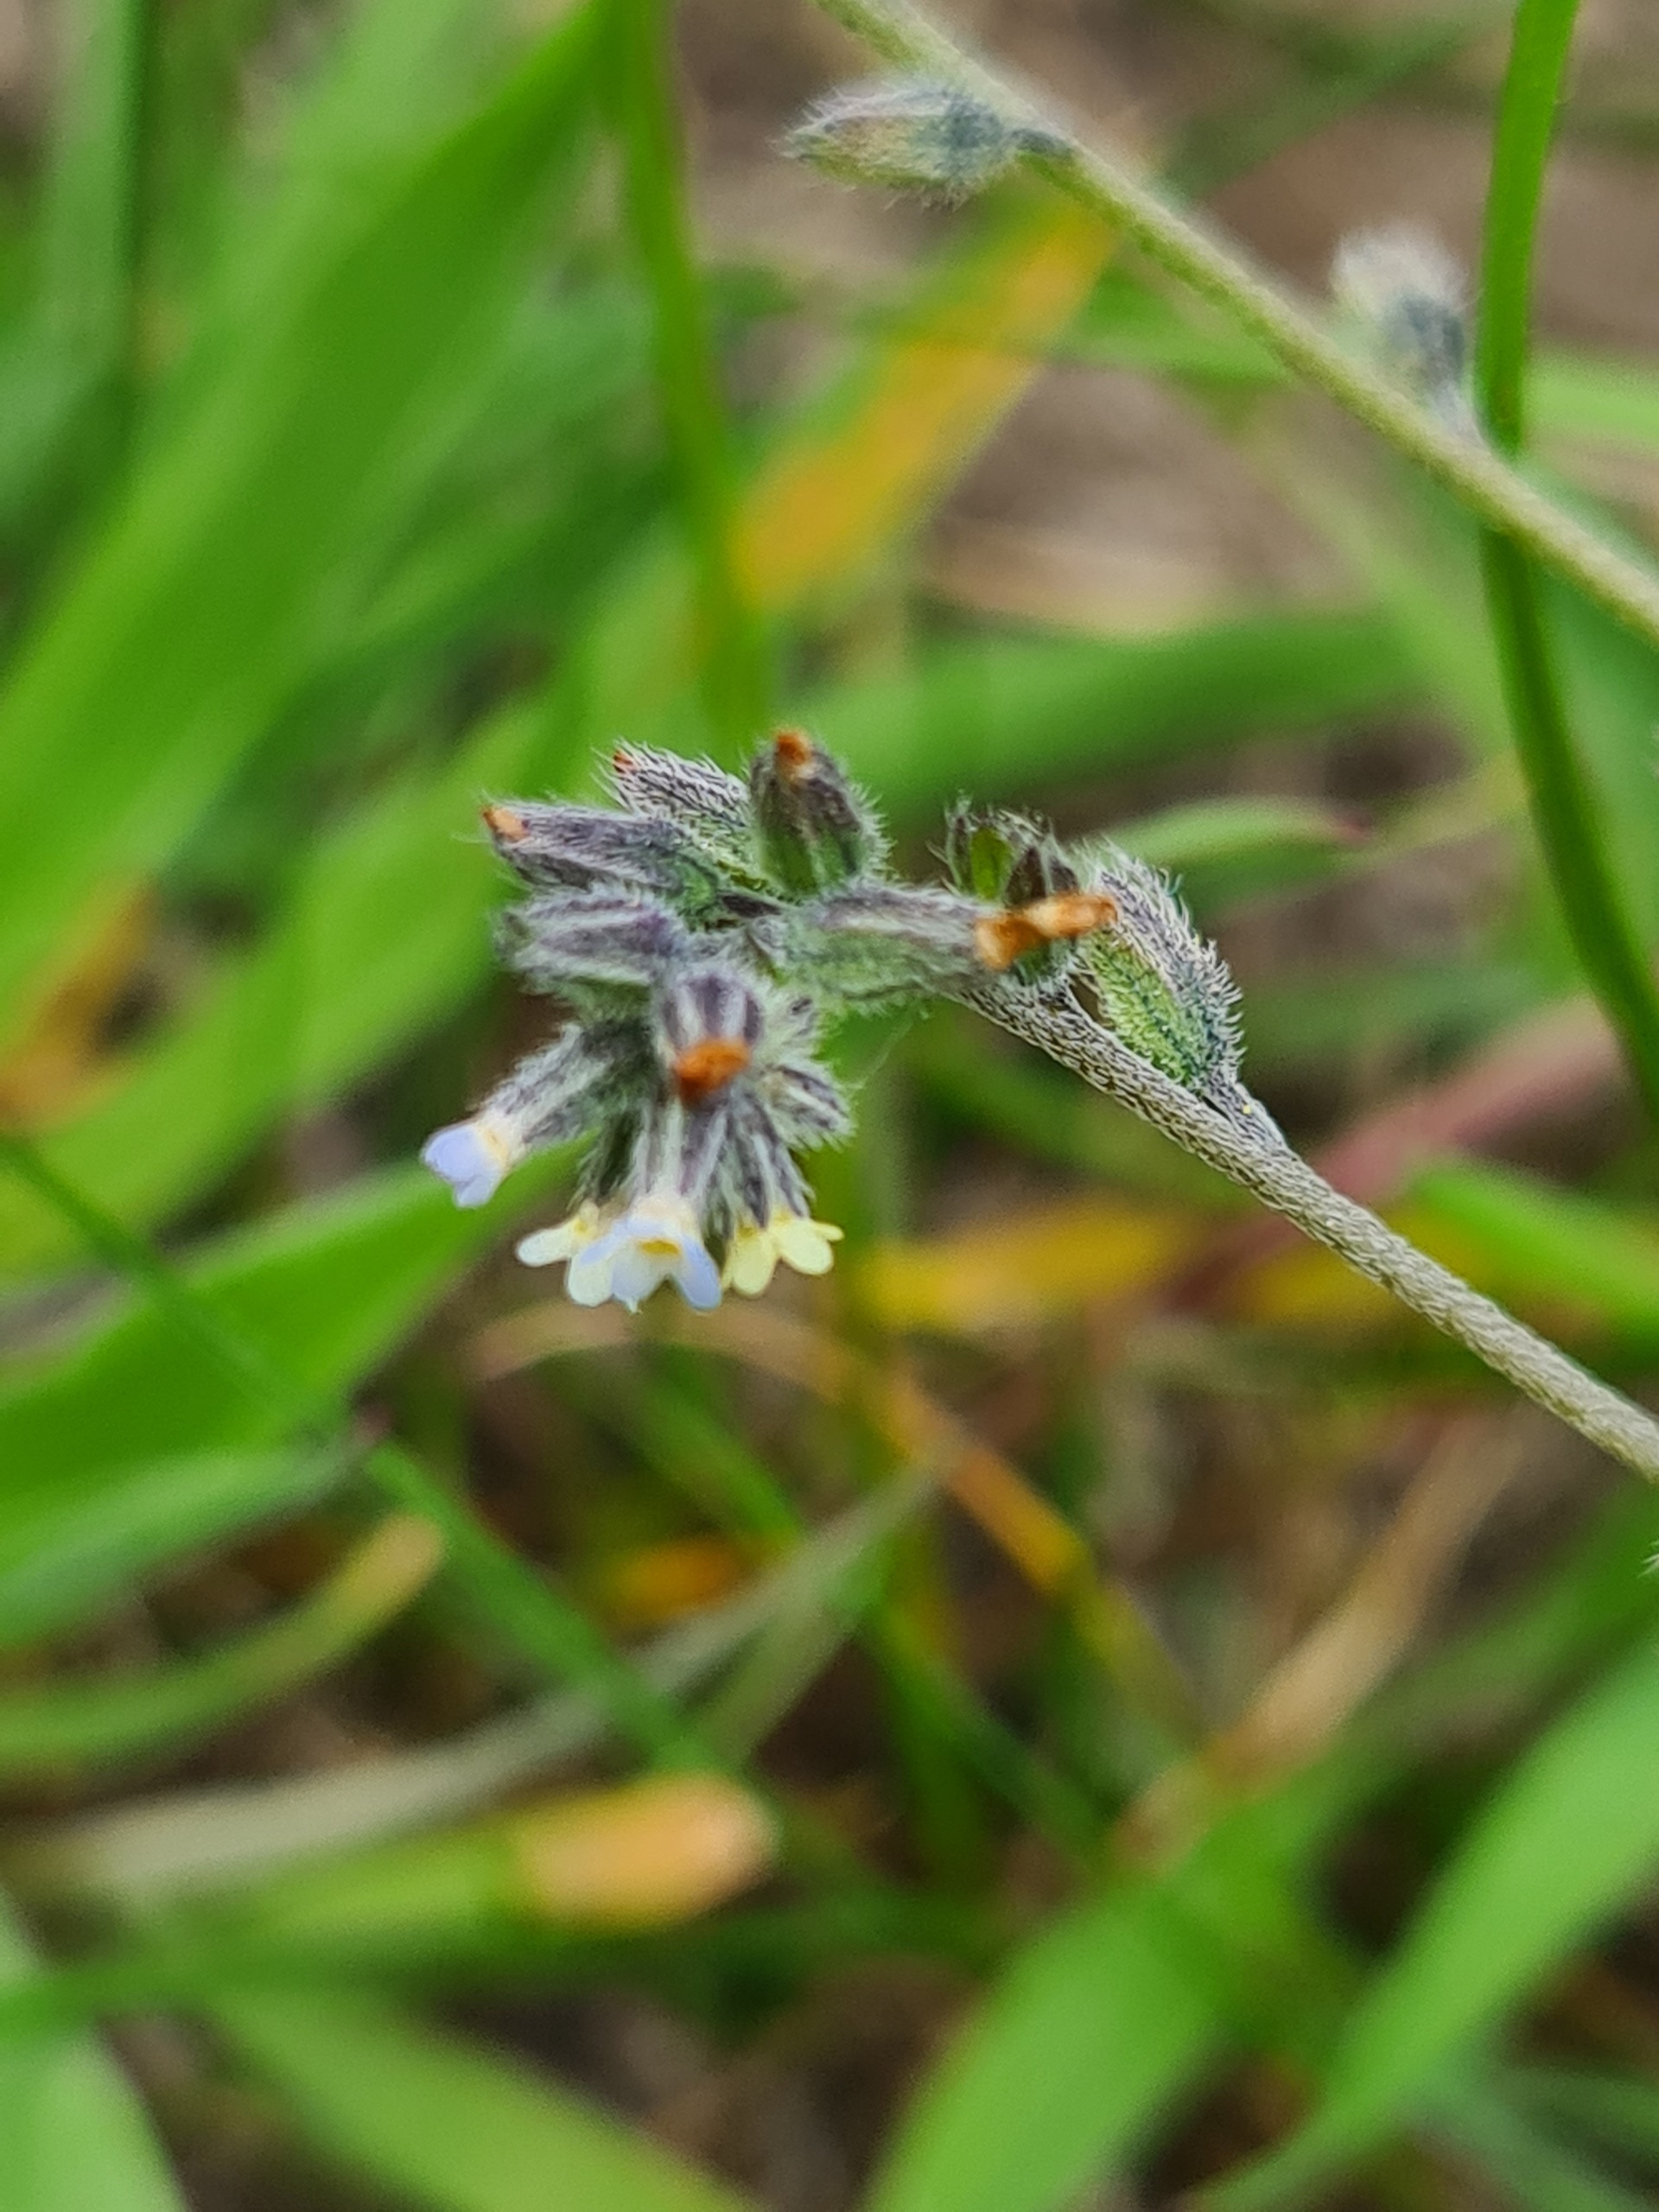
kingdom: Plantae
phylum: Tracheophyta
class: Magnoliopsida
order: Boraginales
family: Boraginaceae
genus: Myosotis
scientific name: Myosotis discolor
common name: Forskelligfarvet forglemmigej
